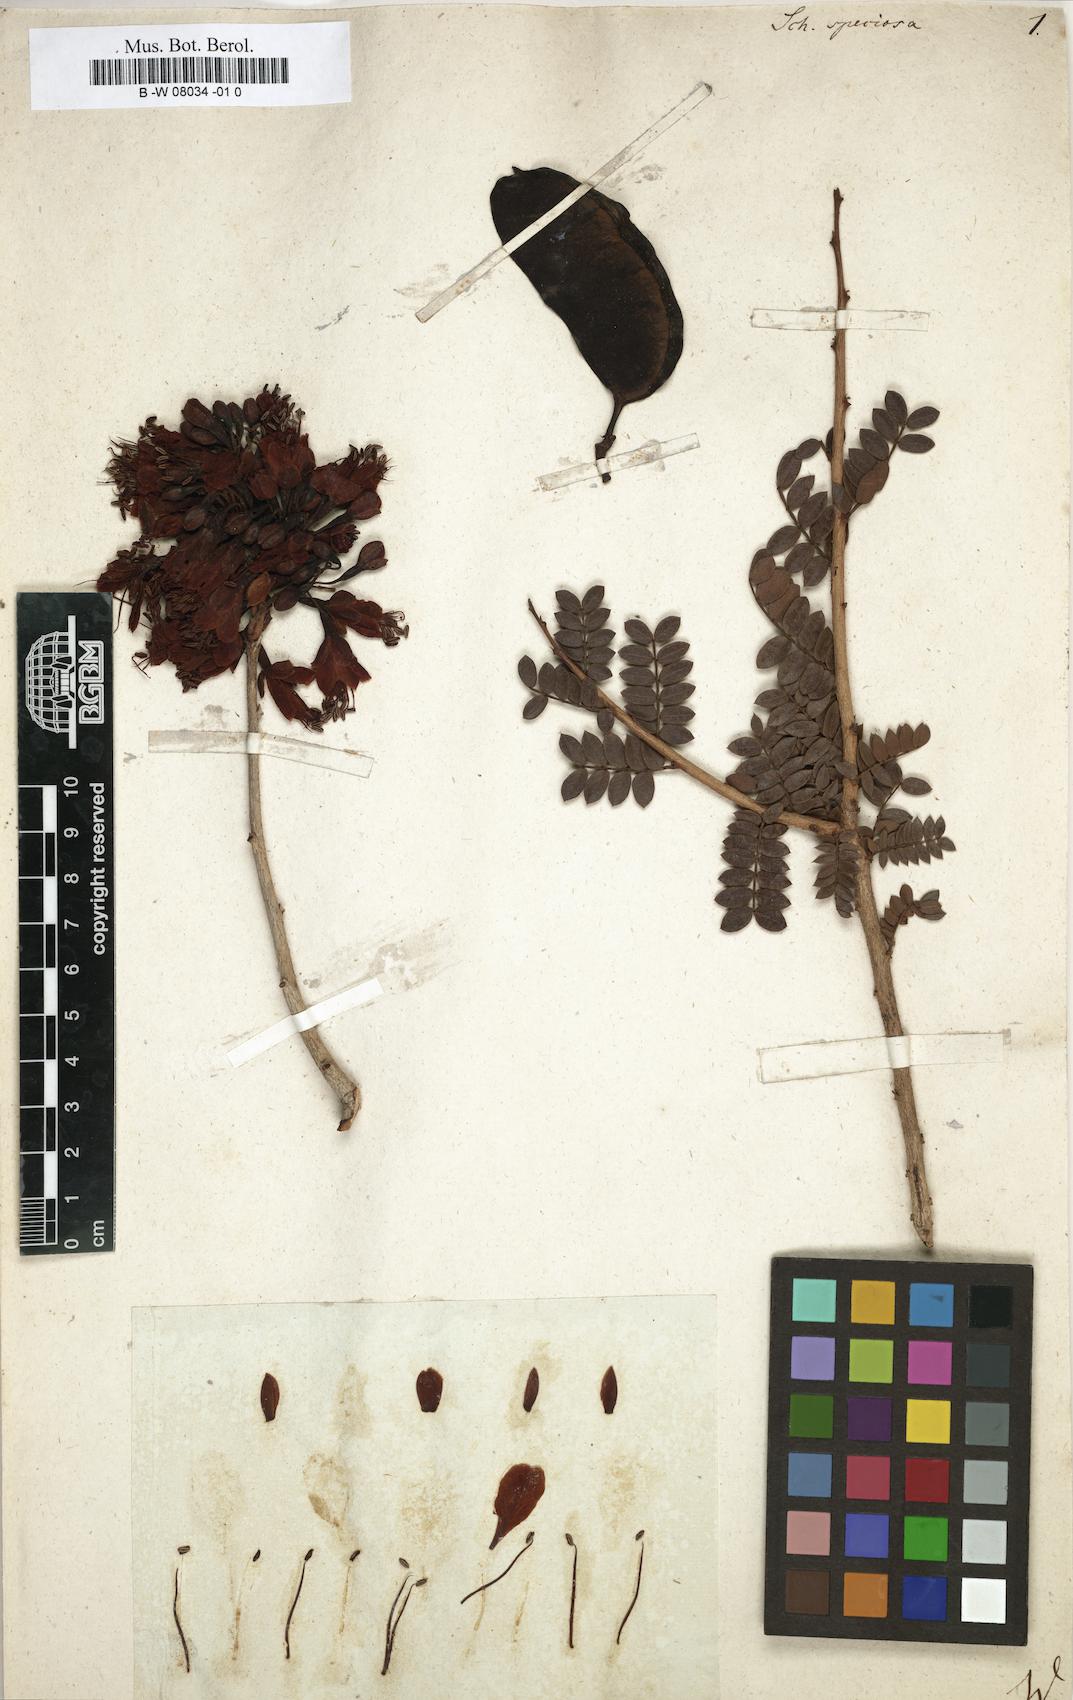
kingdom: Plantae
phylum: Tracheophyta
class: Magnoliopsida
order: Fabales
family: Fabaceae
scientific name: Fabaceae
